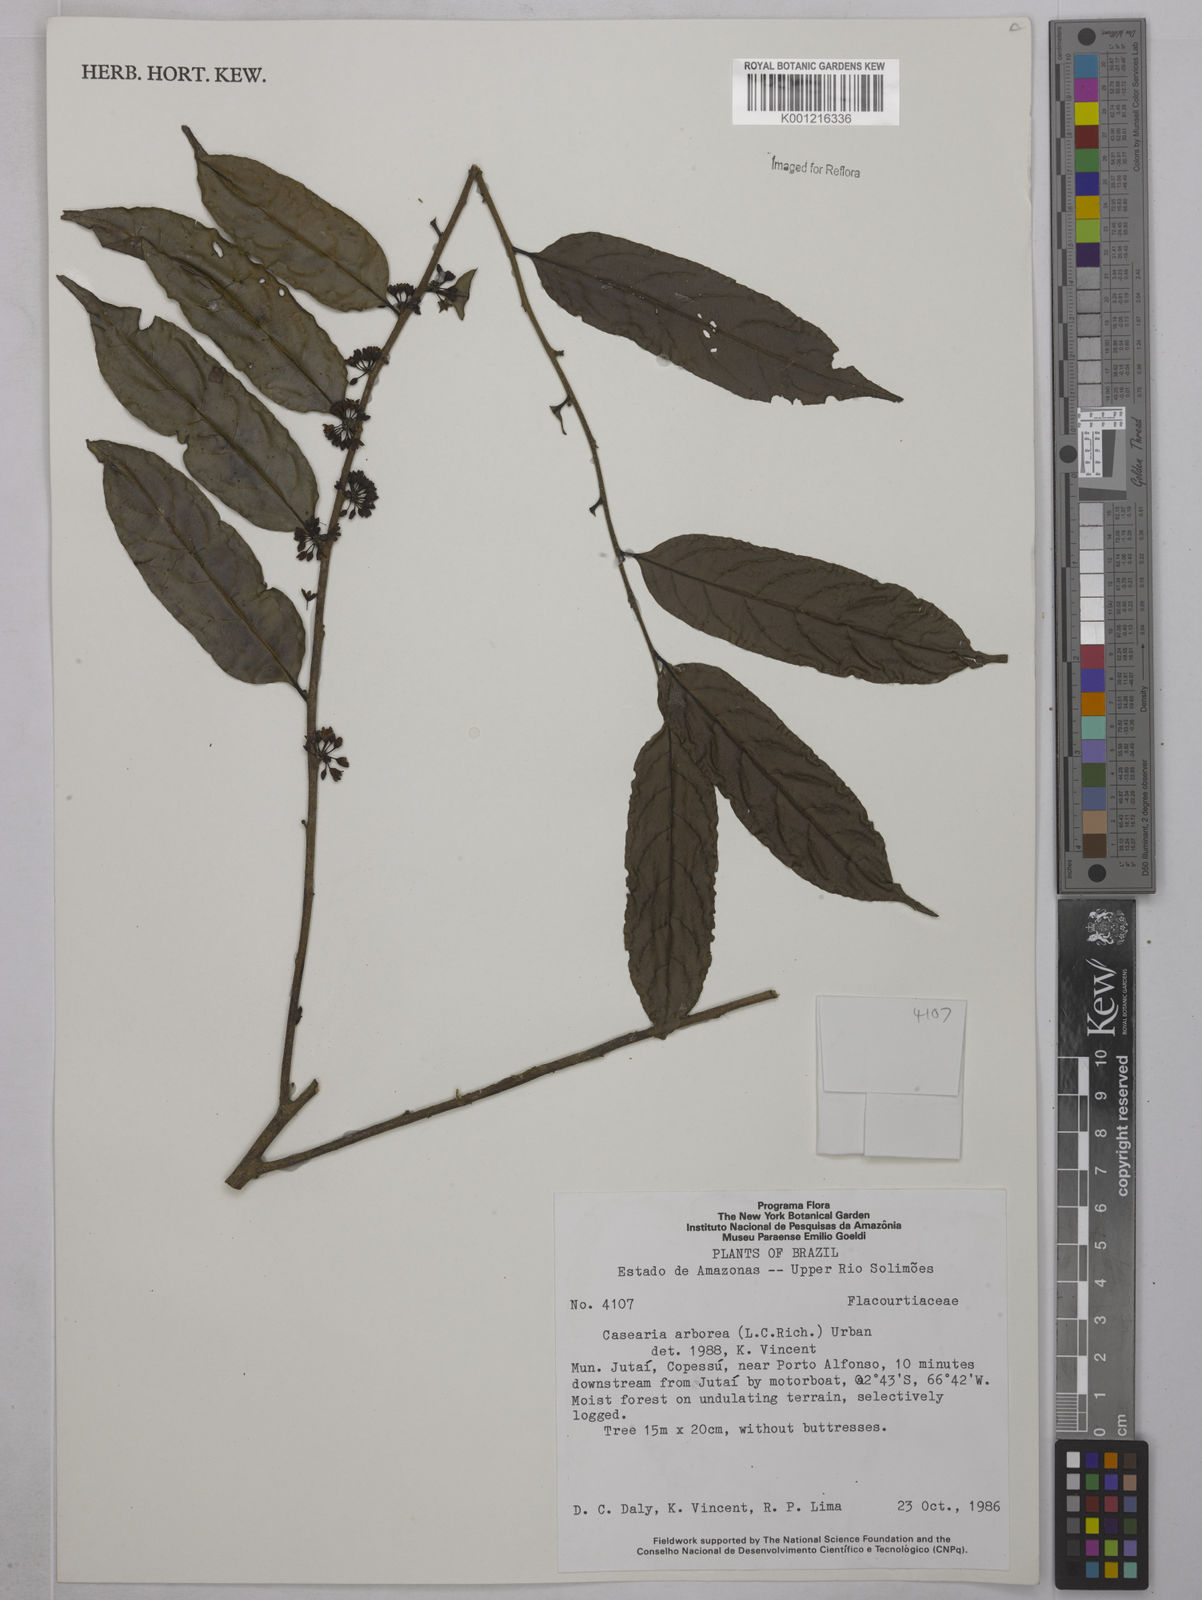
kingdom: Plantae
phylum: Tracheophyta
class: Magnoliopsida
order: Malpighiales
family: Salicaceae
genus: Casearia
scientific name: Casearia arborea
